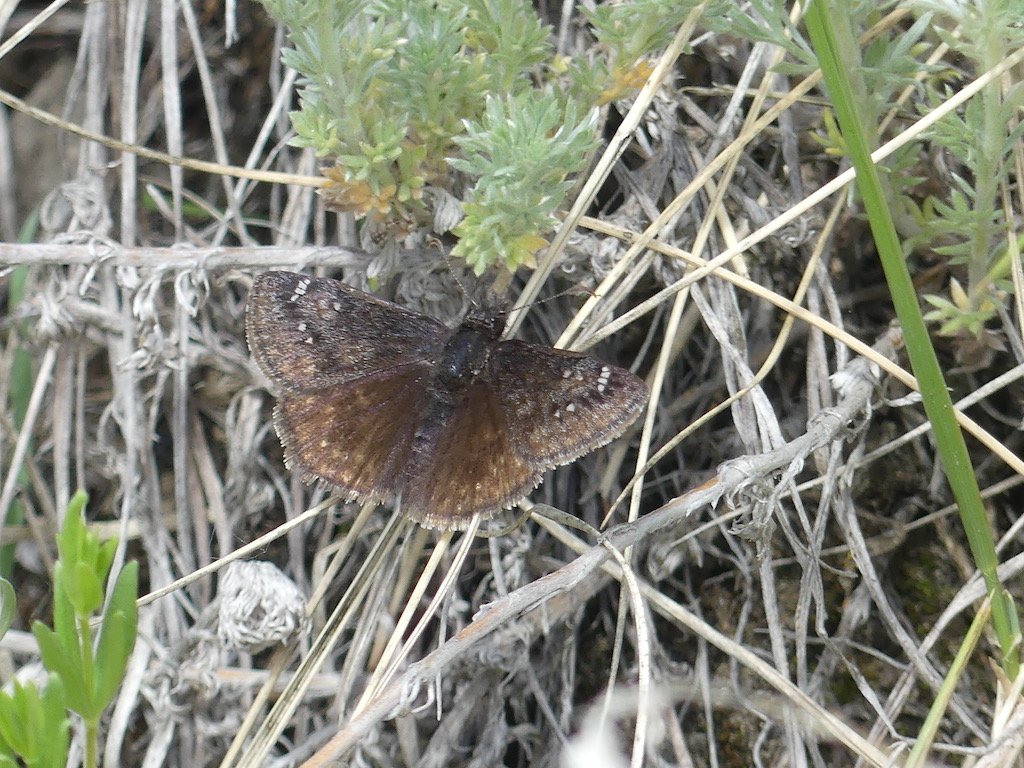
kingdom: Animalia
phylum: Arthropoda
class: Insecta
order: Lepidoptera
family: Hesperiidae
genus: Gesta
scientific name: Gesta
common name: Persius Duskywing
